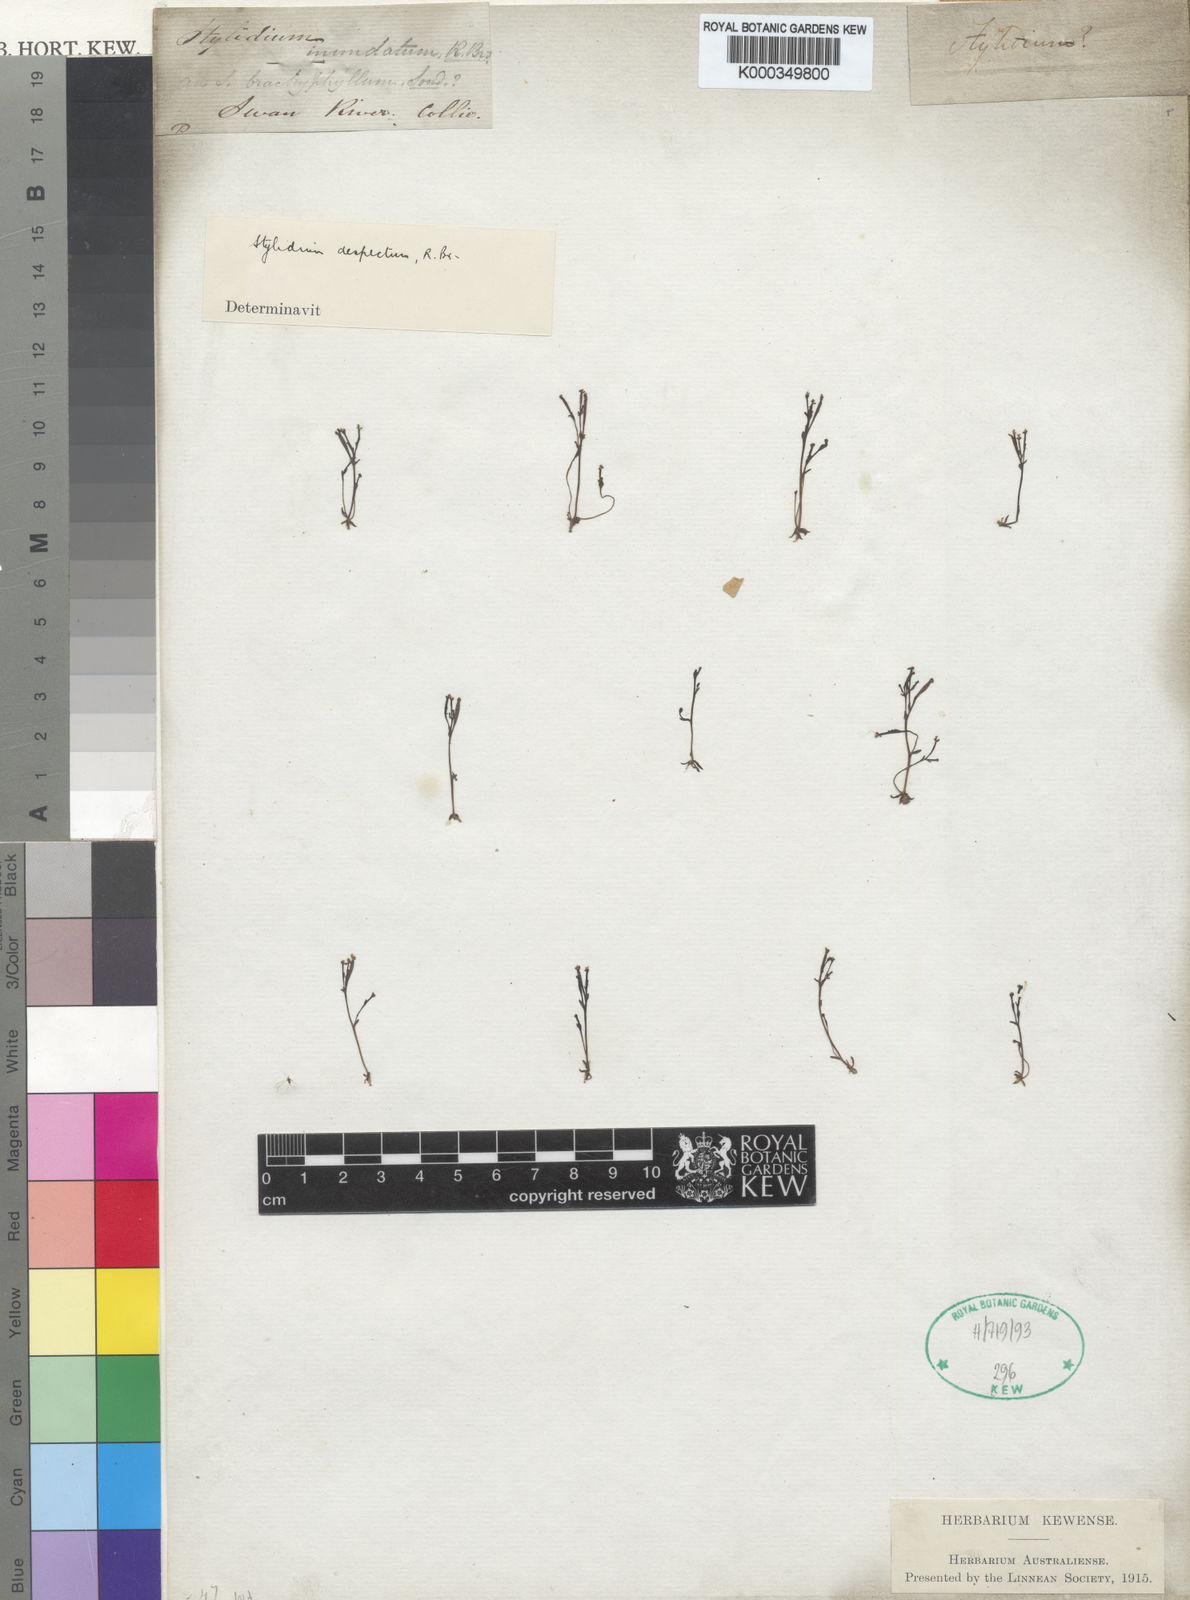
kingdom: Plantae
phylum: Tracheophyta
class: Magnoliopsida
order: Asterales
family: Stylidiaceae
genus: Stylidium
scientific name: Stylidium despectum
